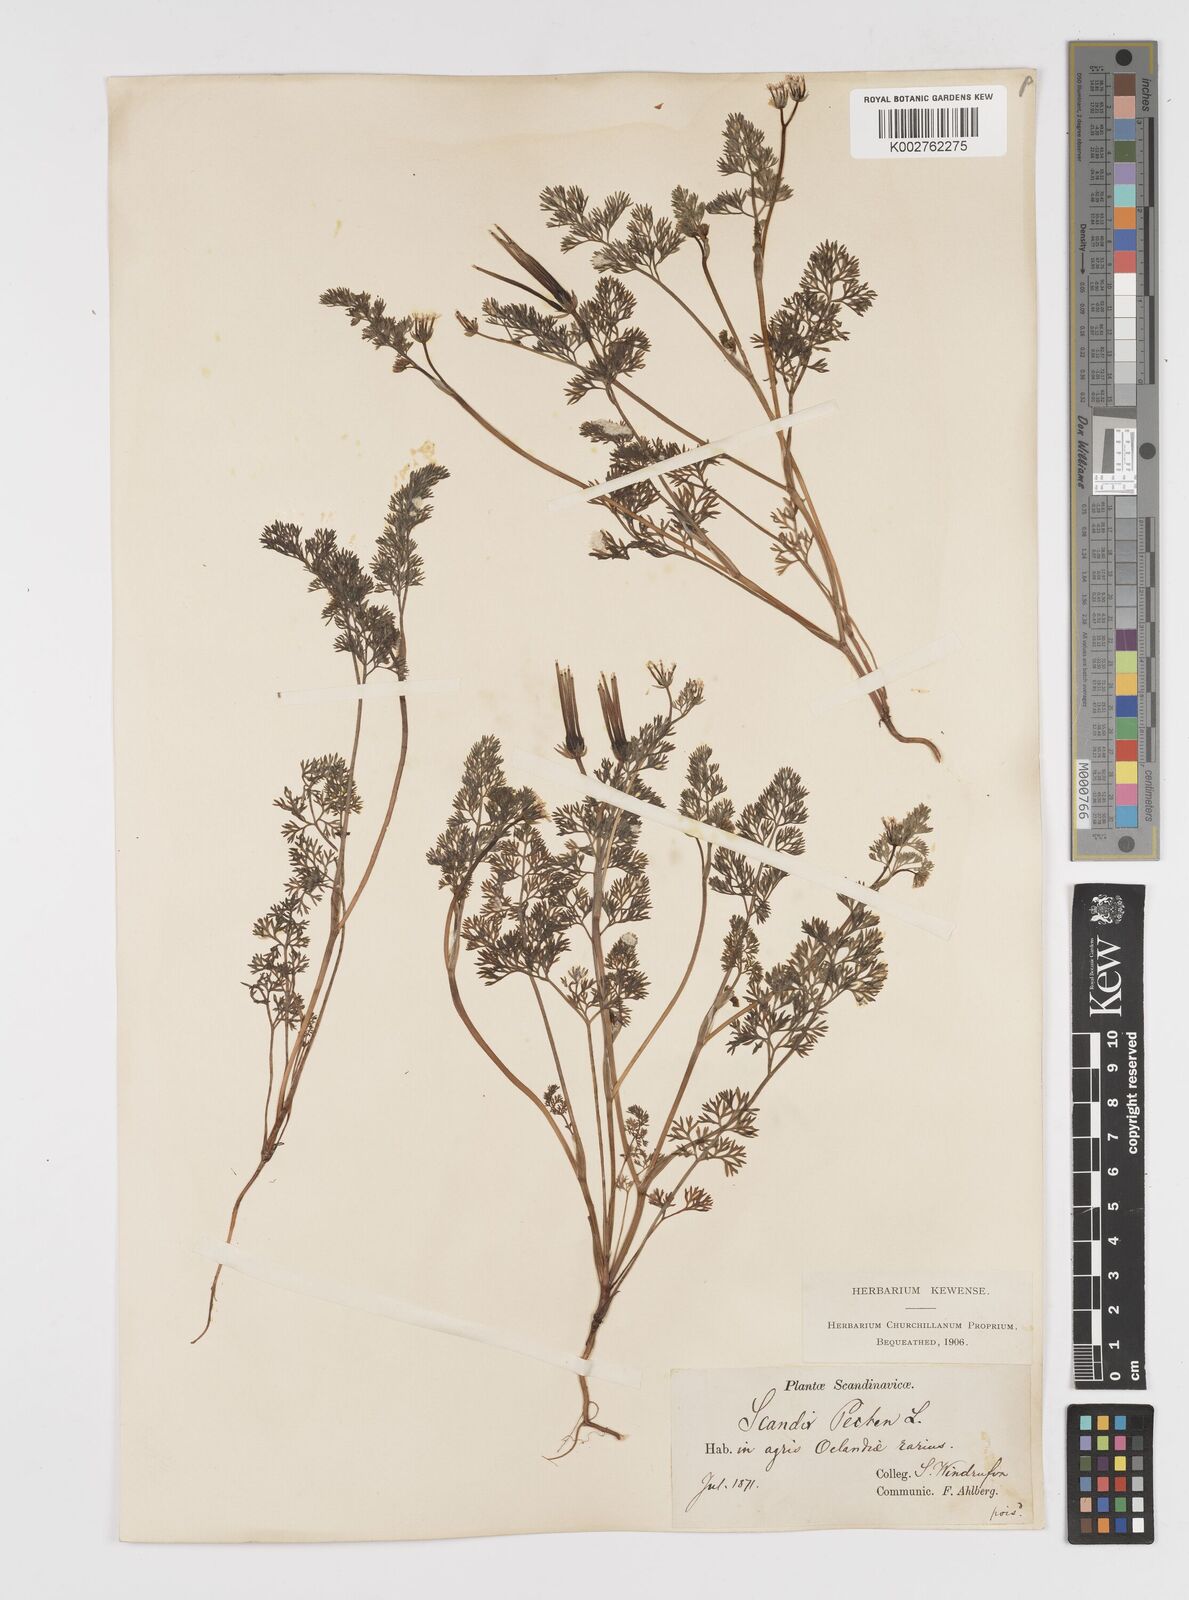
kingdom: Plantae
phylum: Tracheophyta
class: Magnoliopsida
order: Apiales
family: Apiaceae
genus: Scandix
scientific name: Scandix pecten-veneris
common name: Shepherd's-needle
